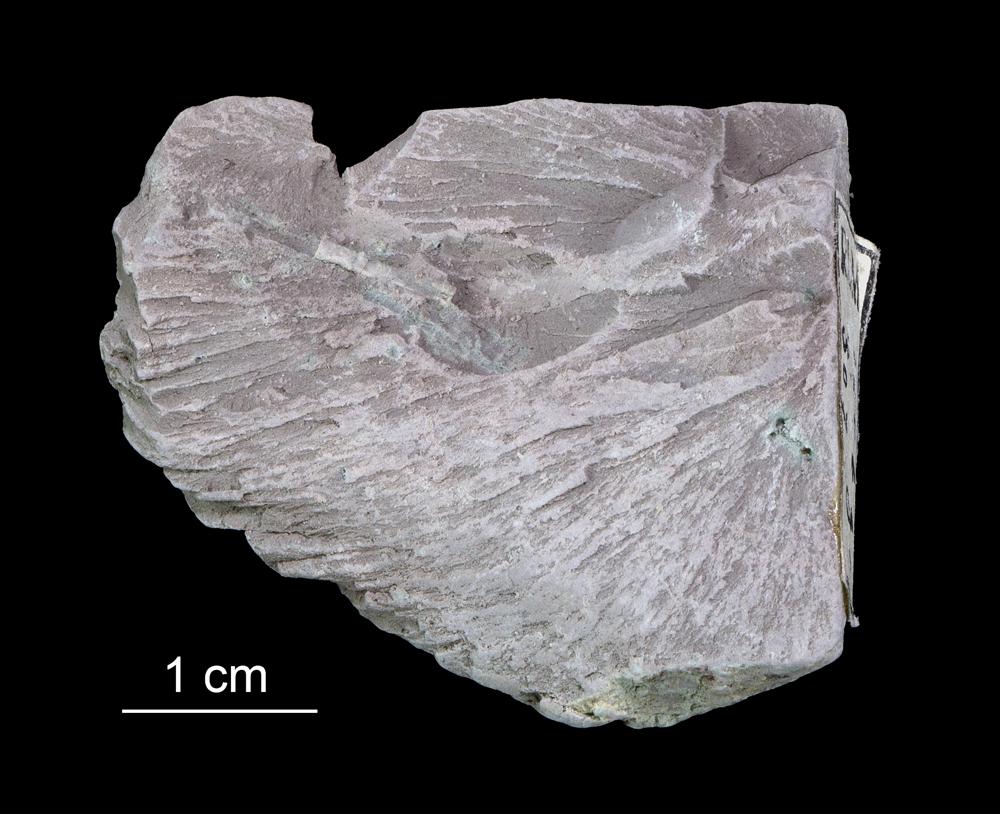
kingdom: Chromista
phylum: Foraminifera
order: Astrorhizida
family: Hyperamminidae
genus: Platysolenites
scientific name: Platysolenites antiquissimus
